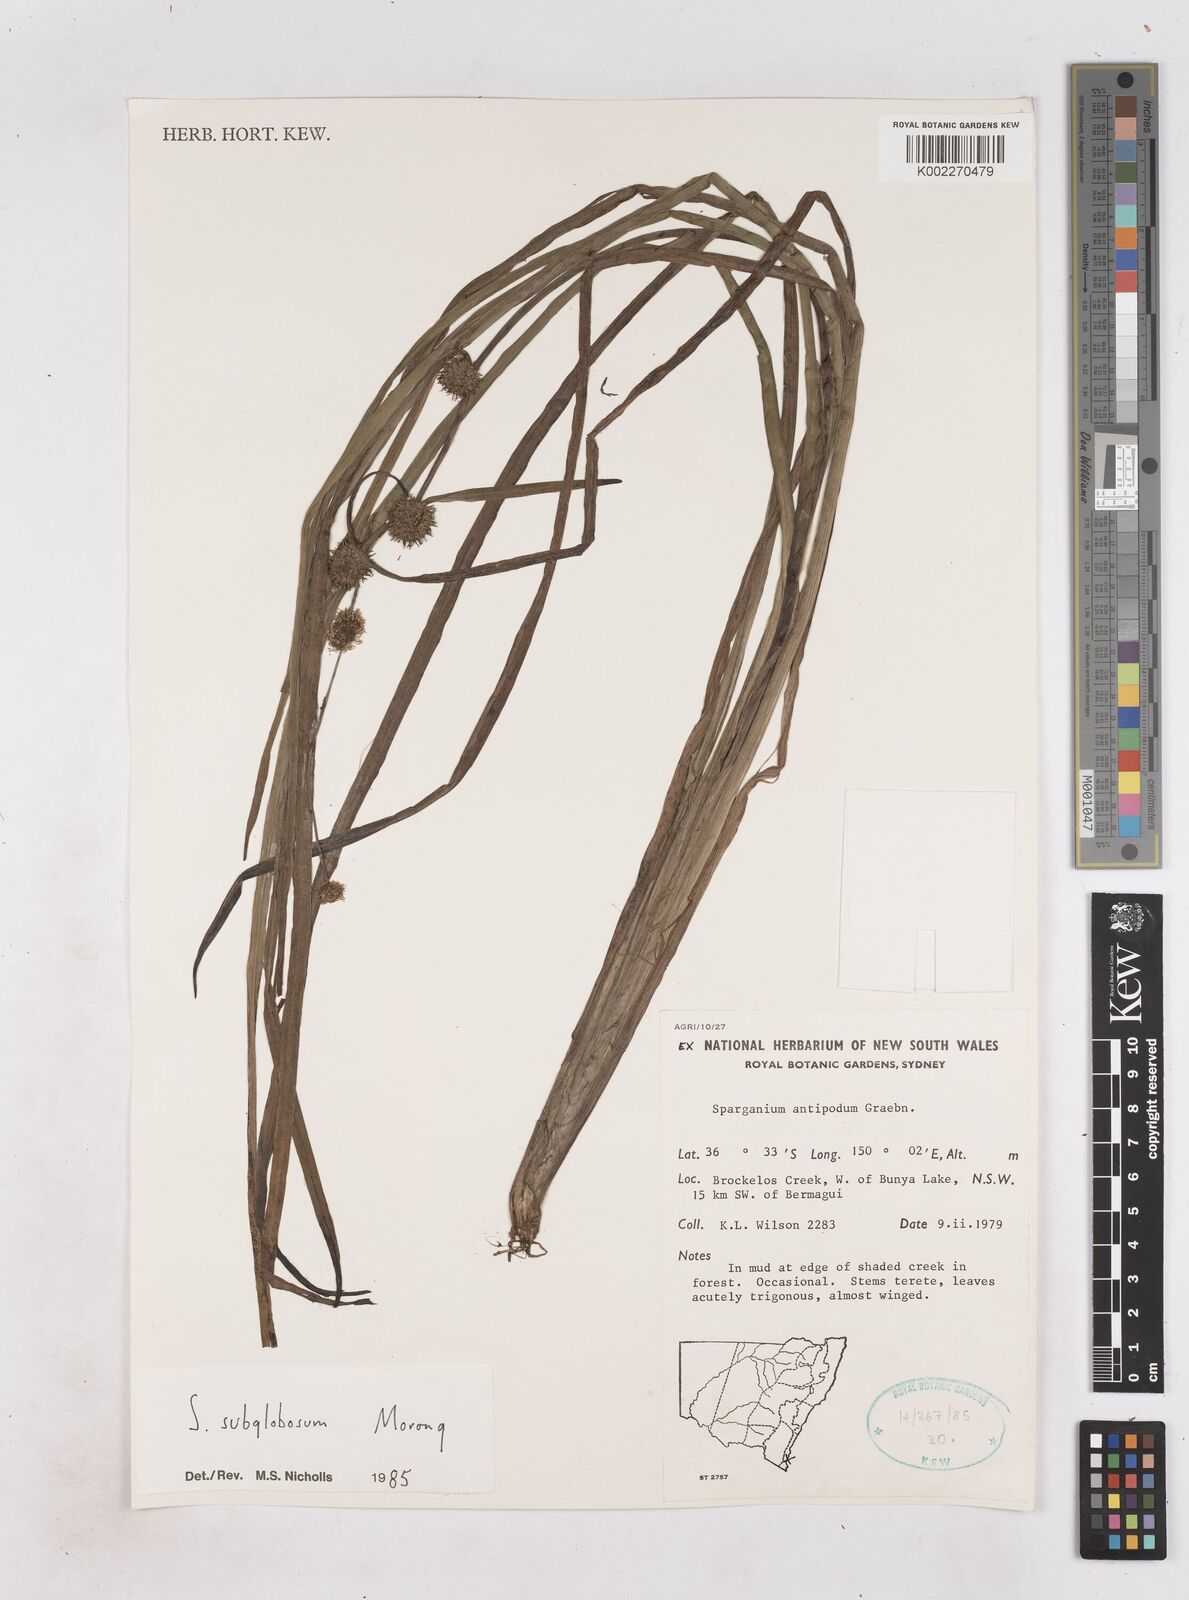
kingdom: Plantae
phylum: Tracheophyta
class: Liliopsida
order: Poales
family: Typhaceae
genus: Sparganium
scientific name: Sparganium subglobosum
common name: Burr­-reed
